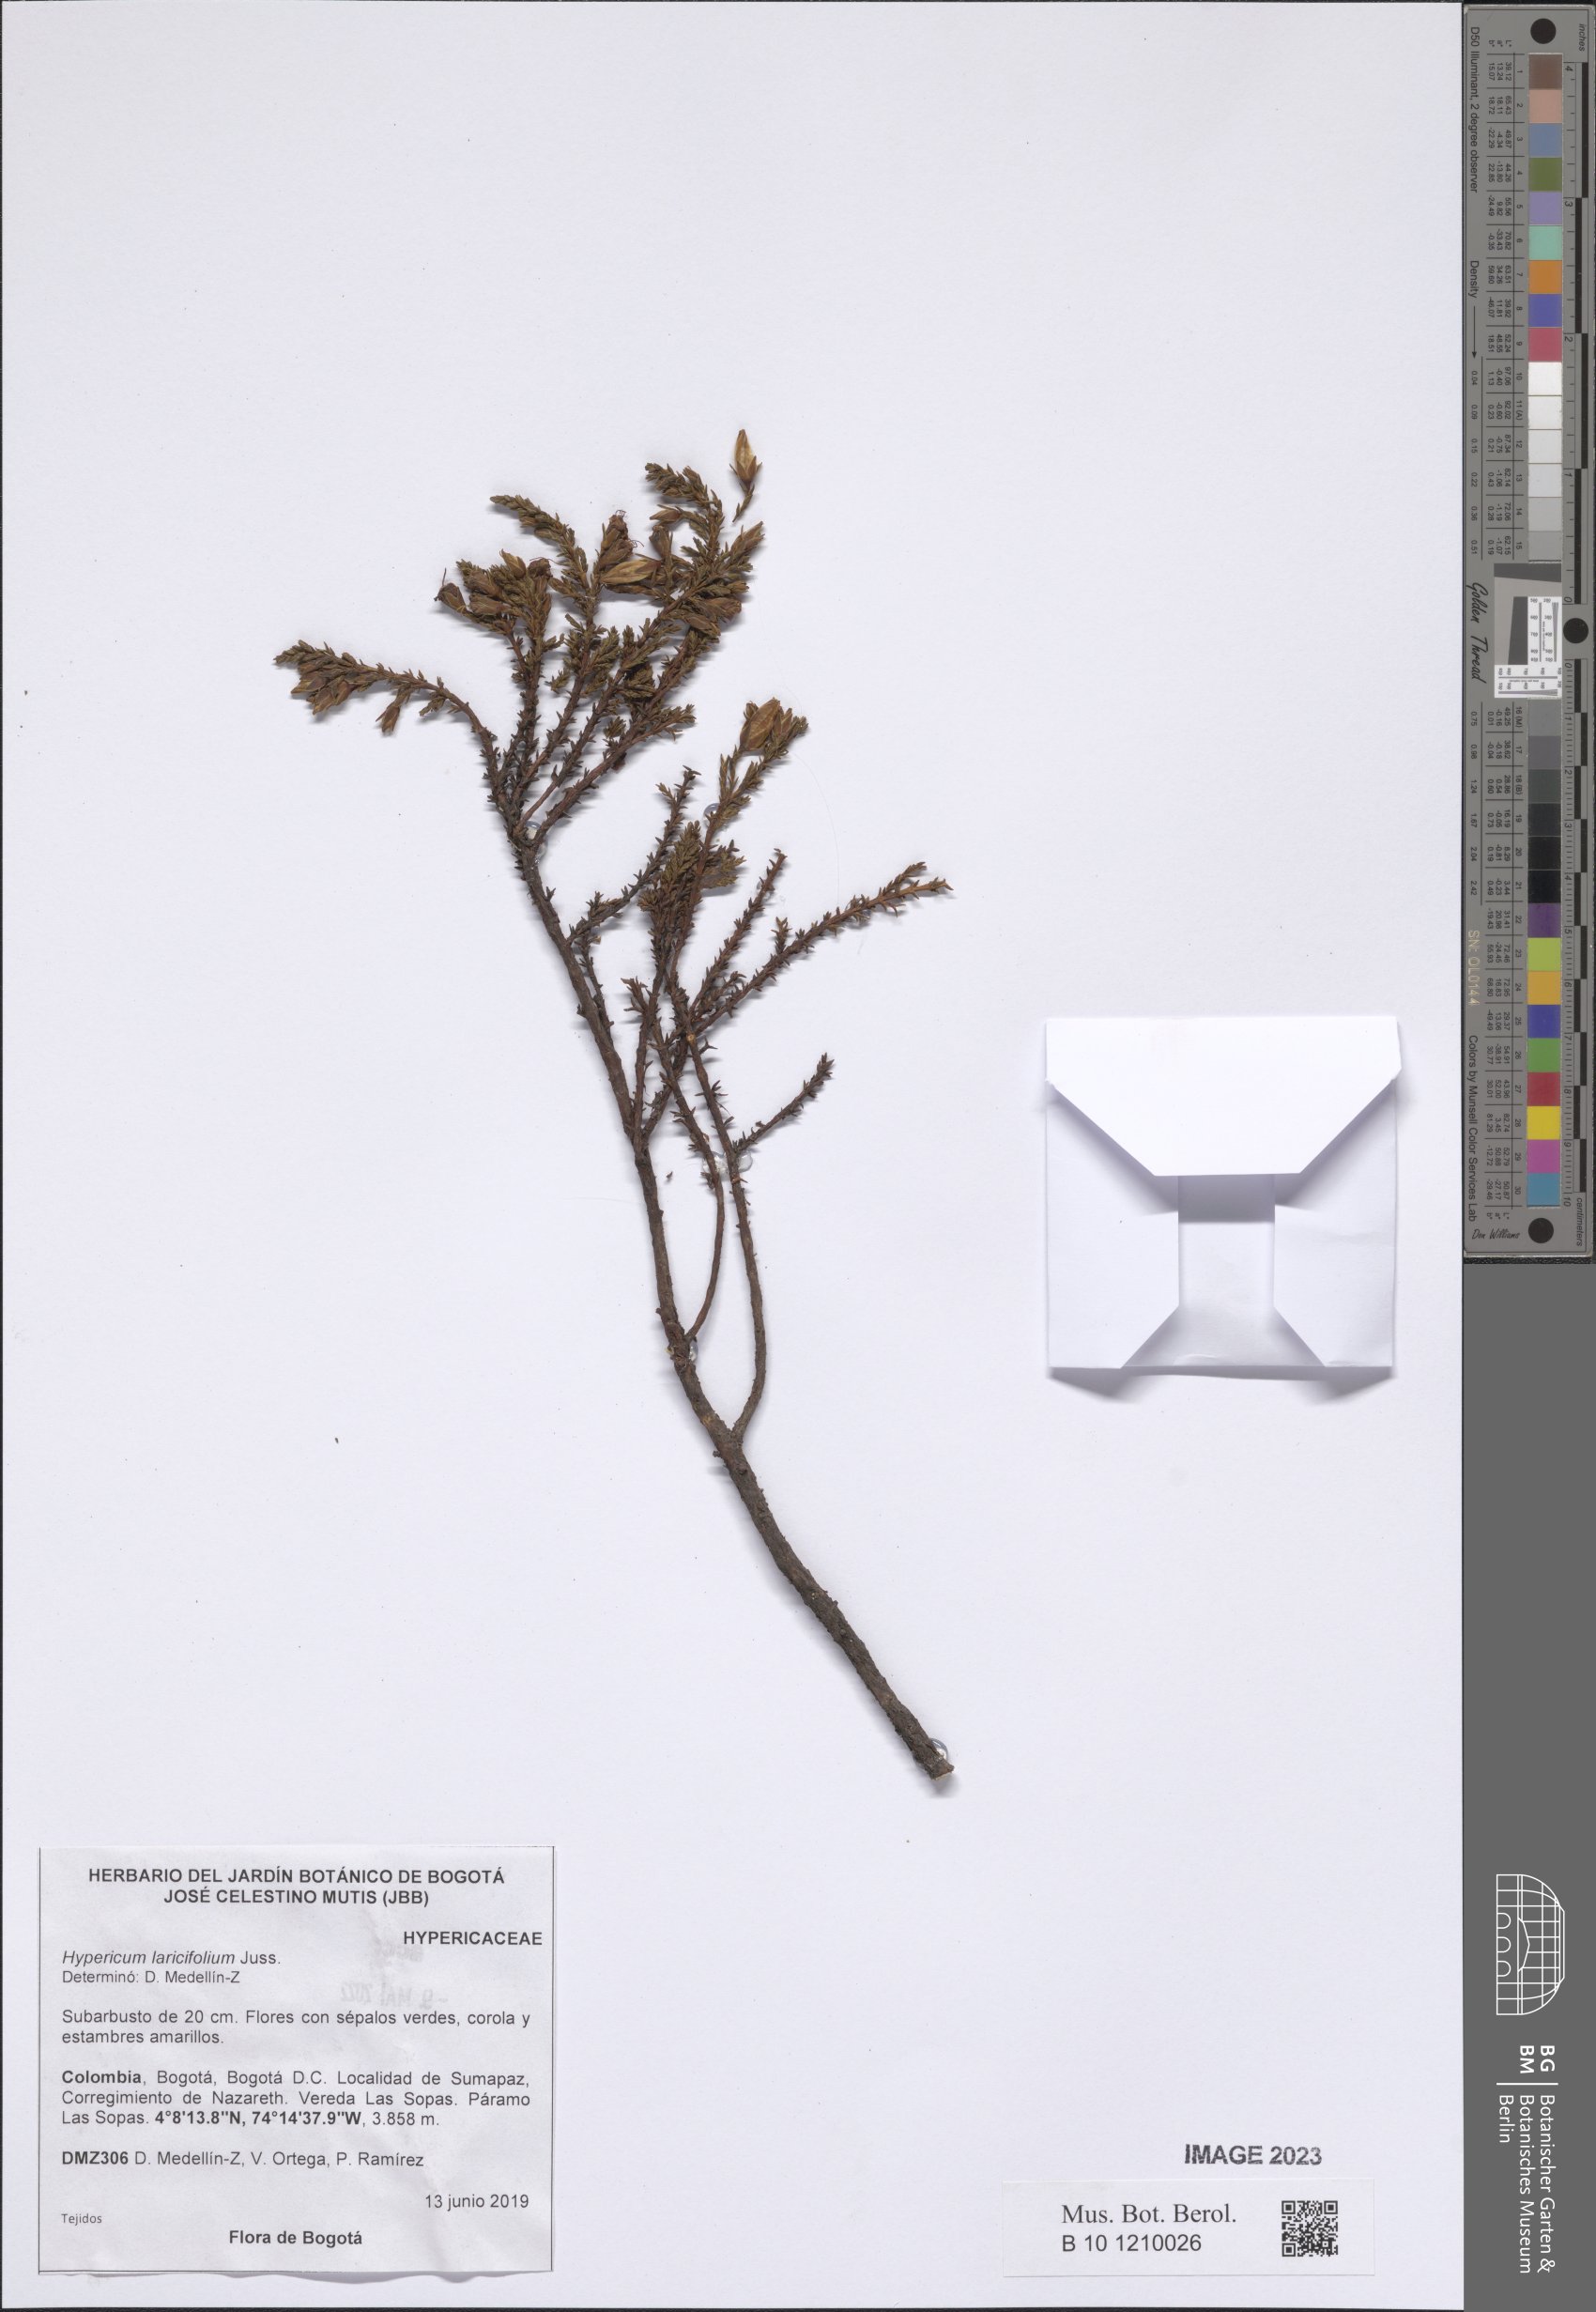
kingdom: Plantae
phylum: Tracheophyta
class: Magnoliopsida
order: Malpighiales
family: Hypericaceae
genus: Hypericum
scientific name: Hypericum laricifolium
